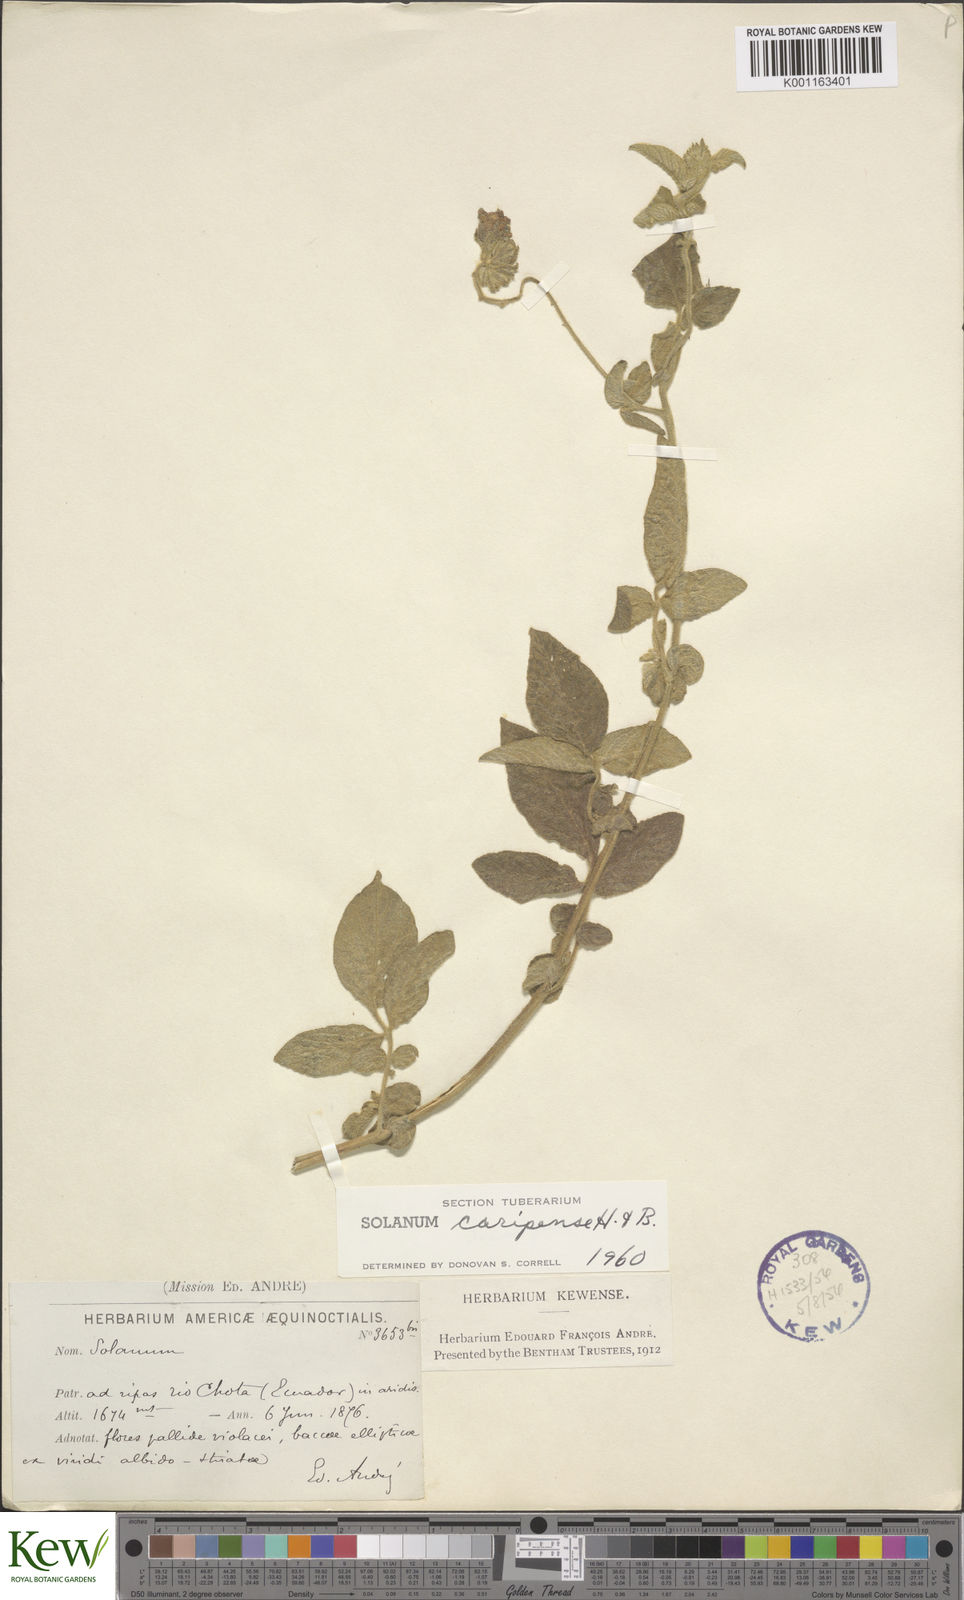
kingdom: Plantae
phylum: Tracheophyta
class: Magnoliopsida
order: Solanales
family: Solanaceae
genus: Solanum
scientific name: Solanum caripense
